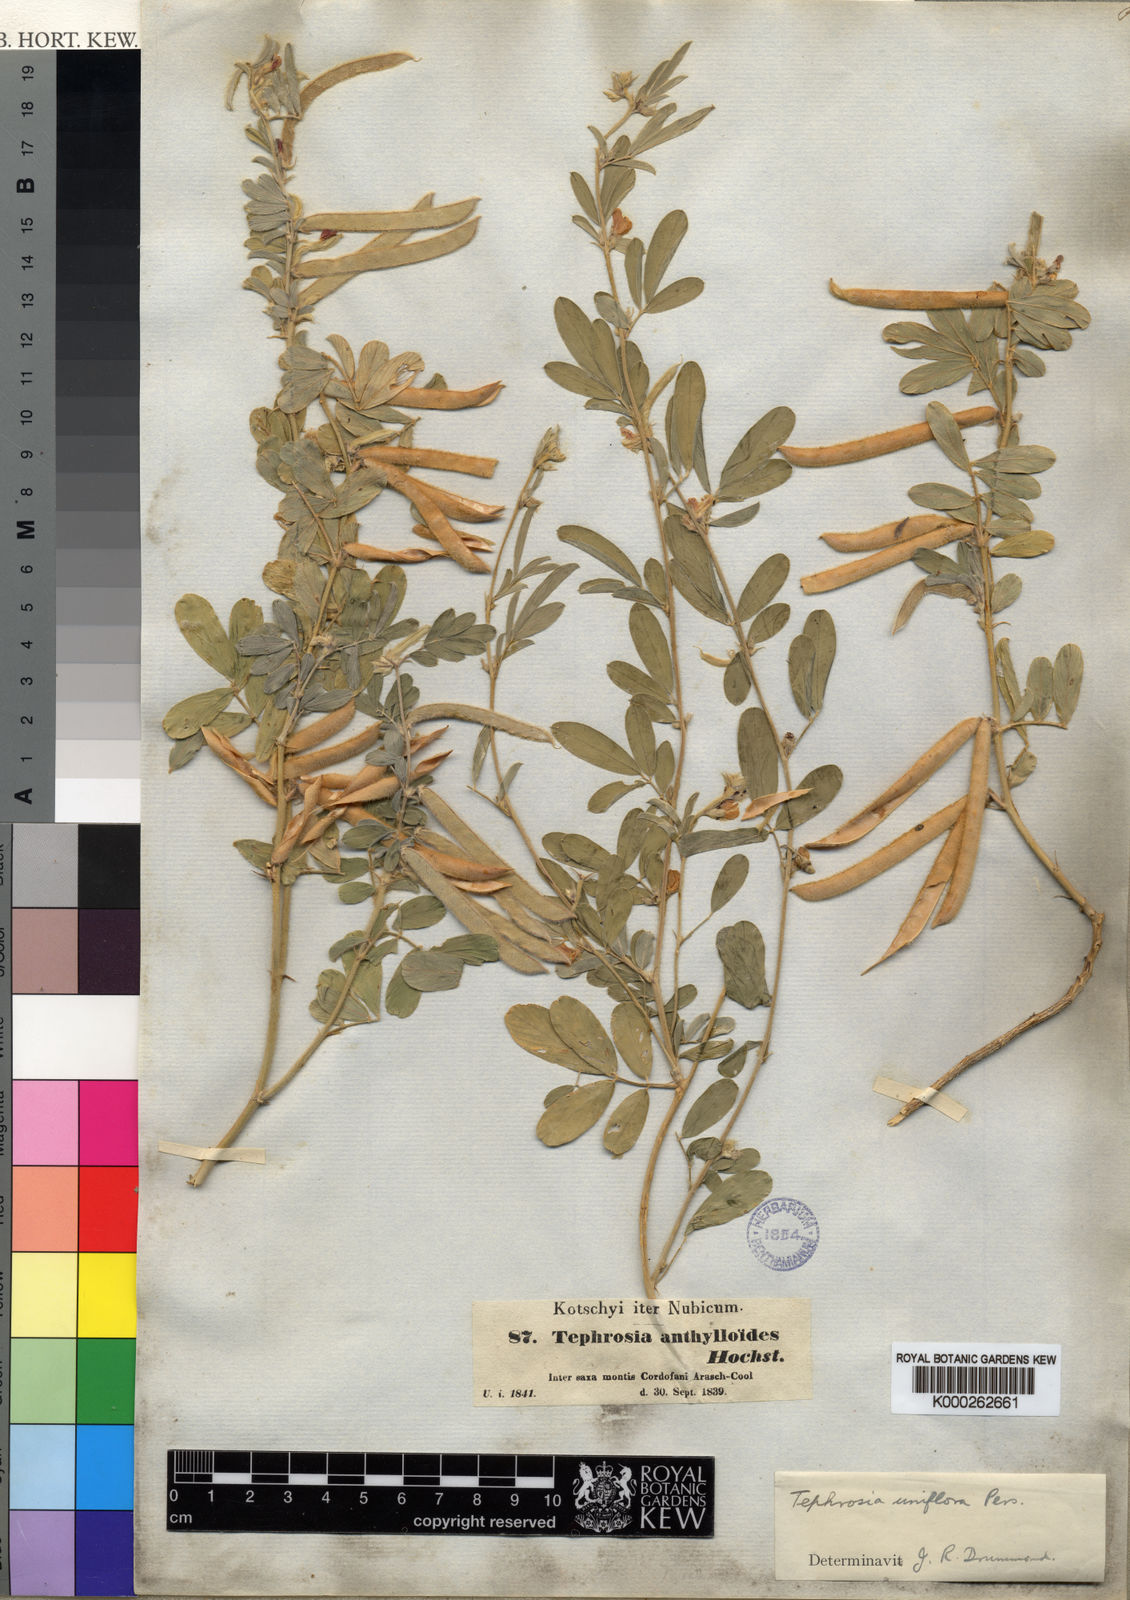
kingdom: Plantae
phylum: Tracheophyta
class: Magnoliopsida
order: Fabales
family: Fabaceae
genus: Tephrosia
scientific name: Tephrosia uniflora
